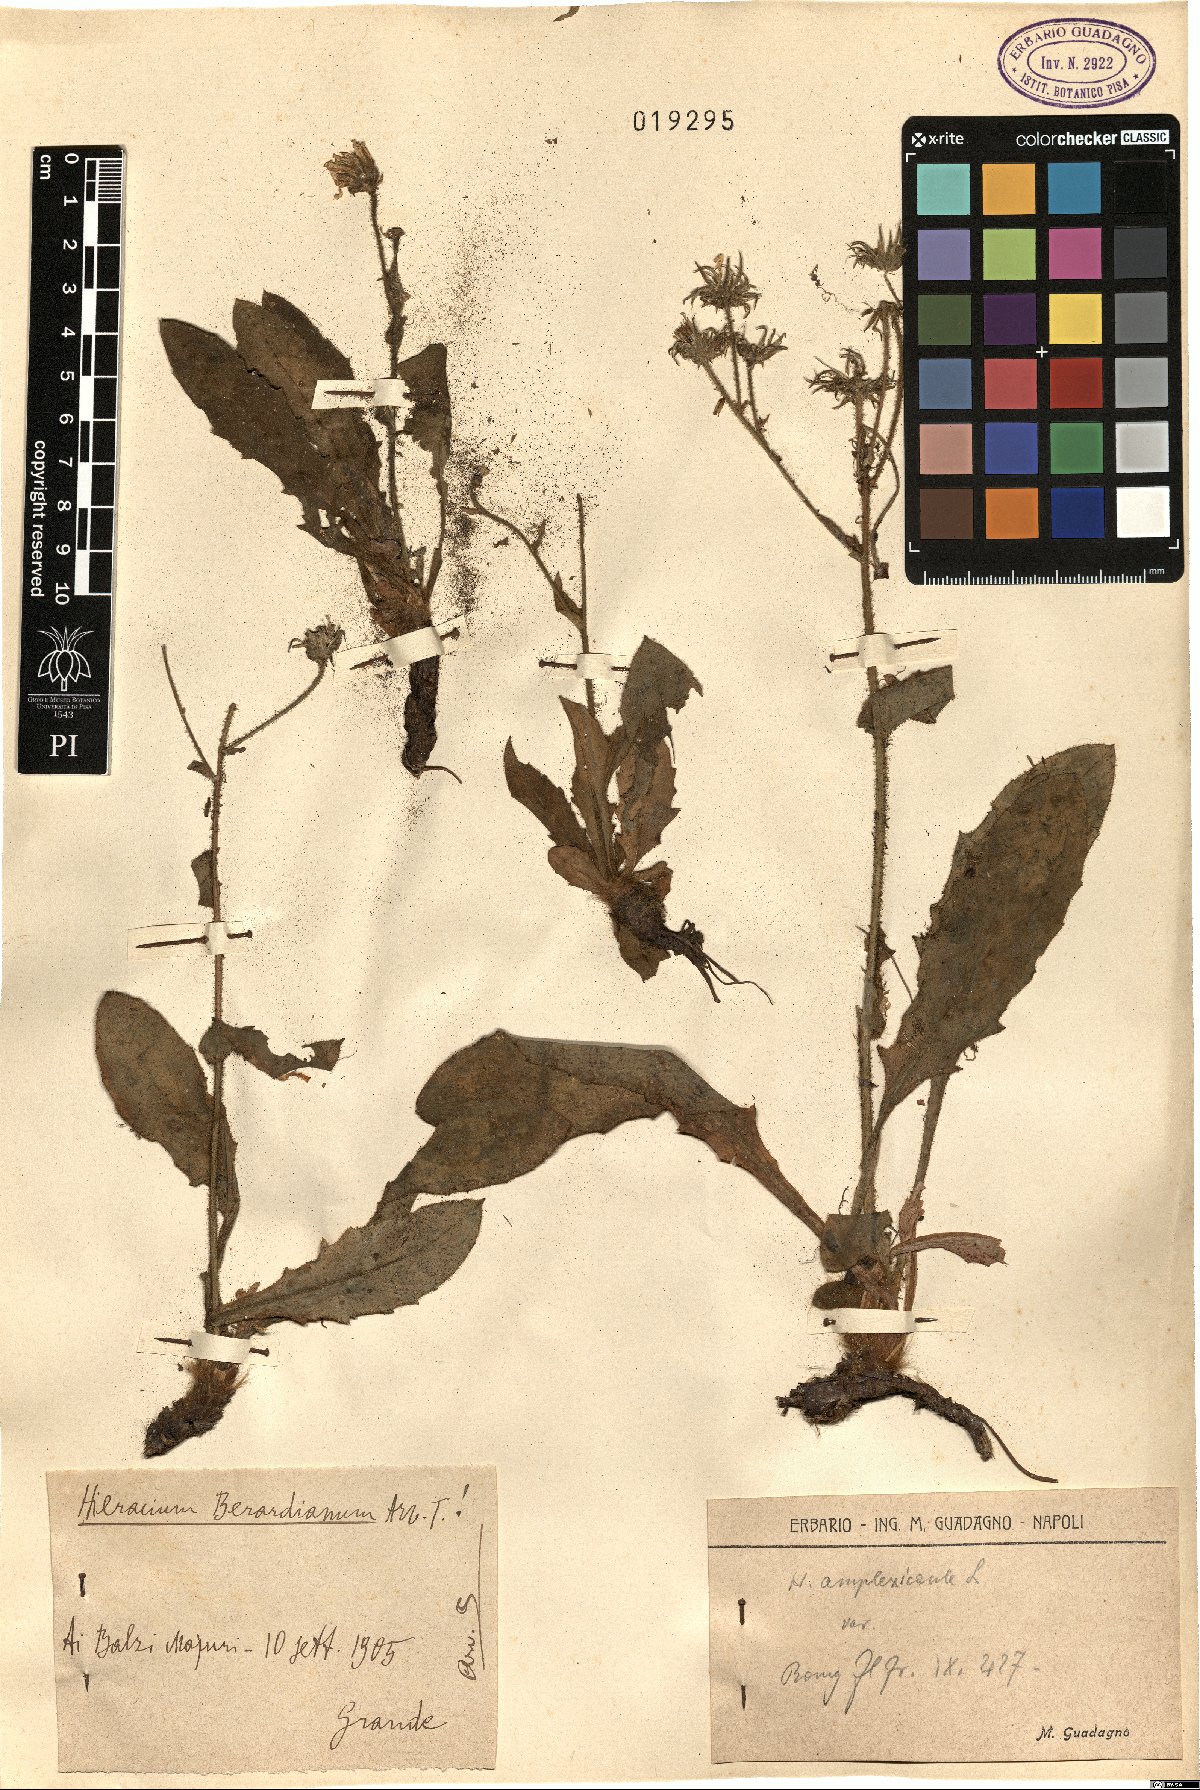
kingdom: Plantae
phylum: Tracheophyta
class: Magnoliopsida
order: Asterales
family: Asteraceae
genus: Hieracium
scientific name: Hieracium amplexicaule
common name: Sticky hawkweed
